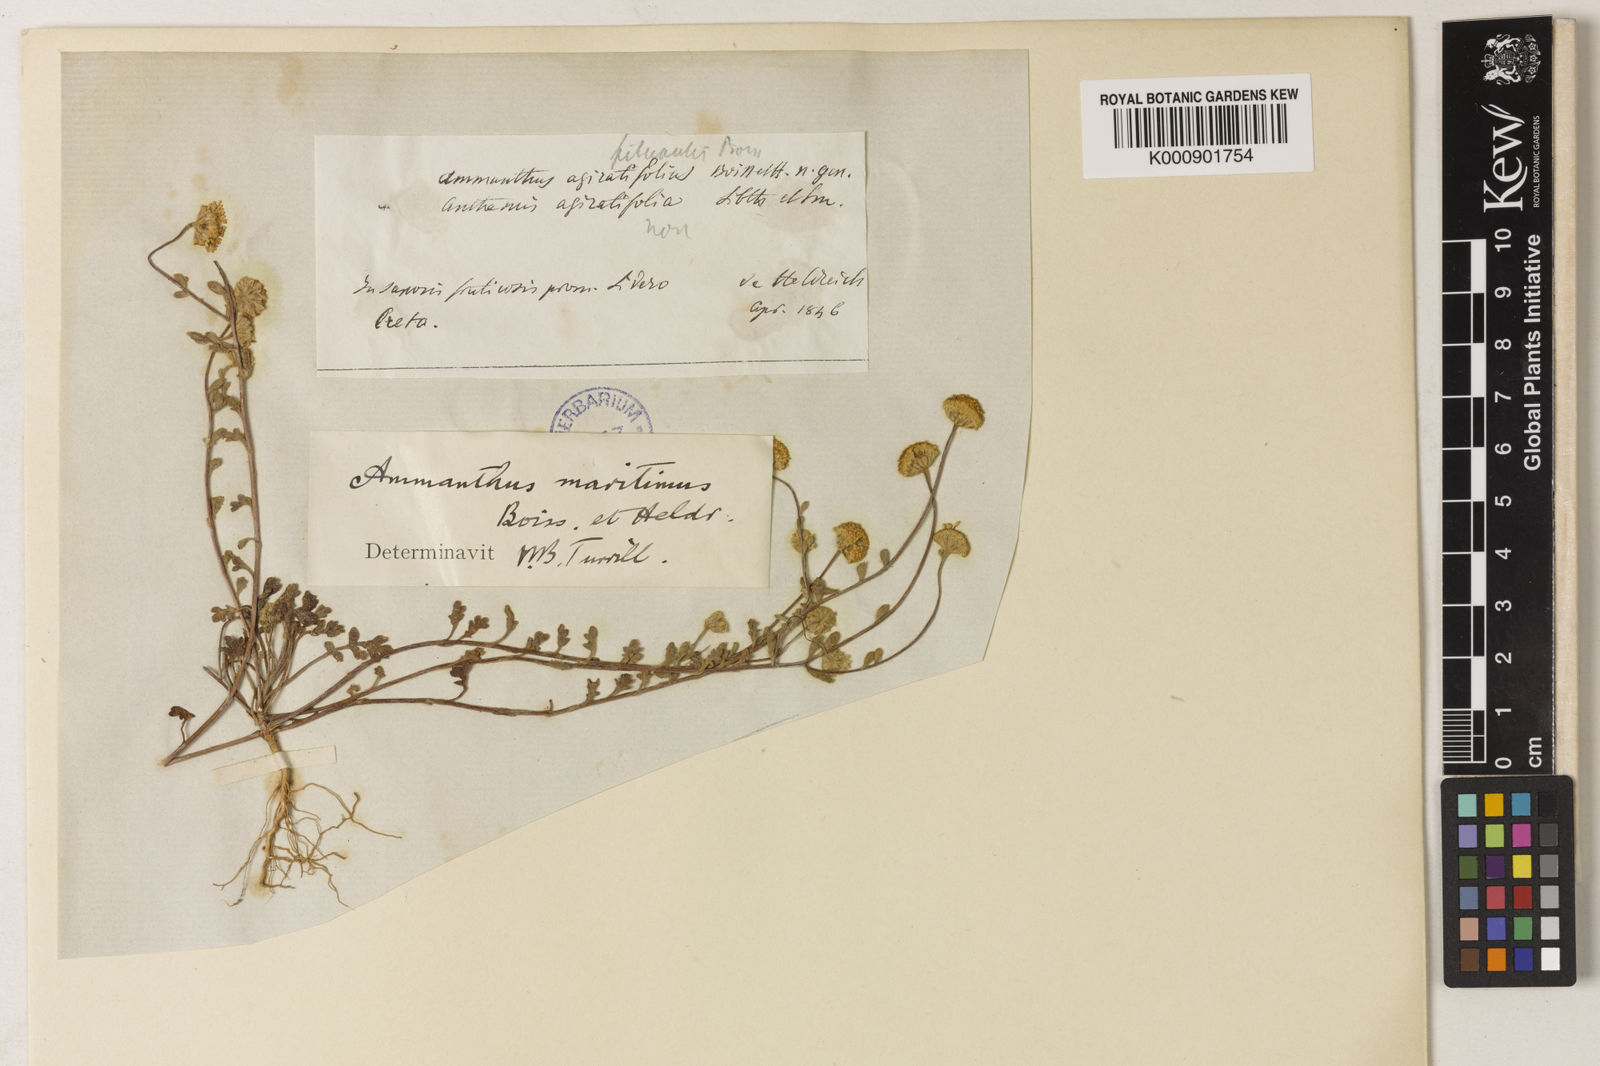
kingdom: Plantae
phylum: Tracheophyta
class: Magnoliopsida
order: Asterales
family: Asteraceae
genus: Anthemis
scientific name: Anthemis maritima
